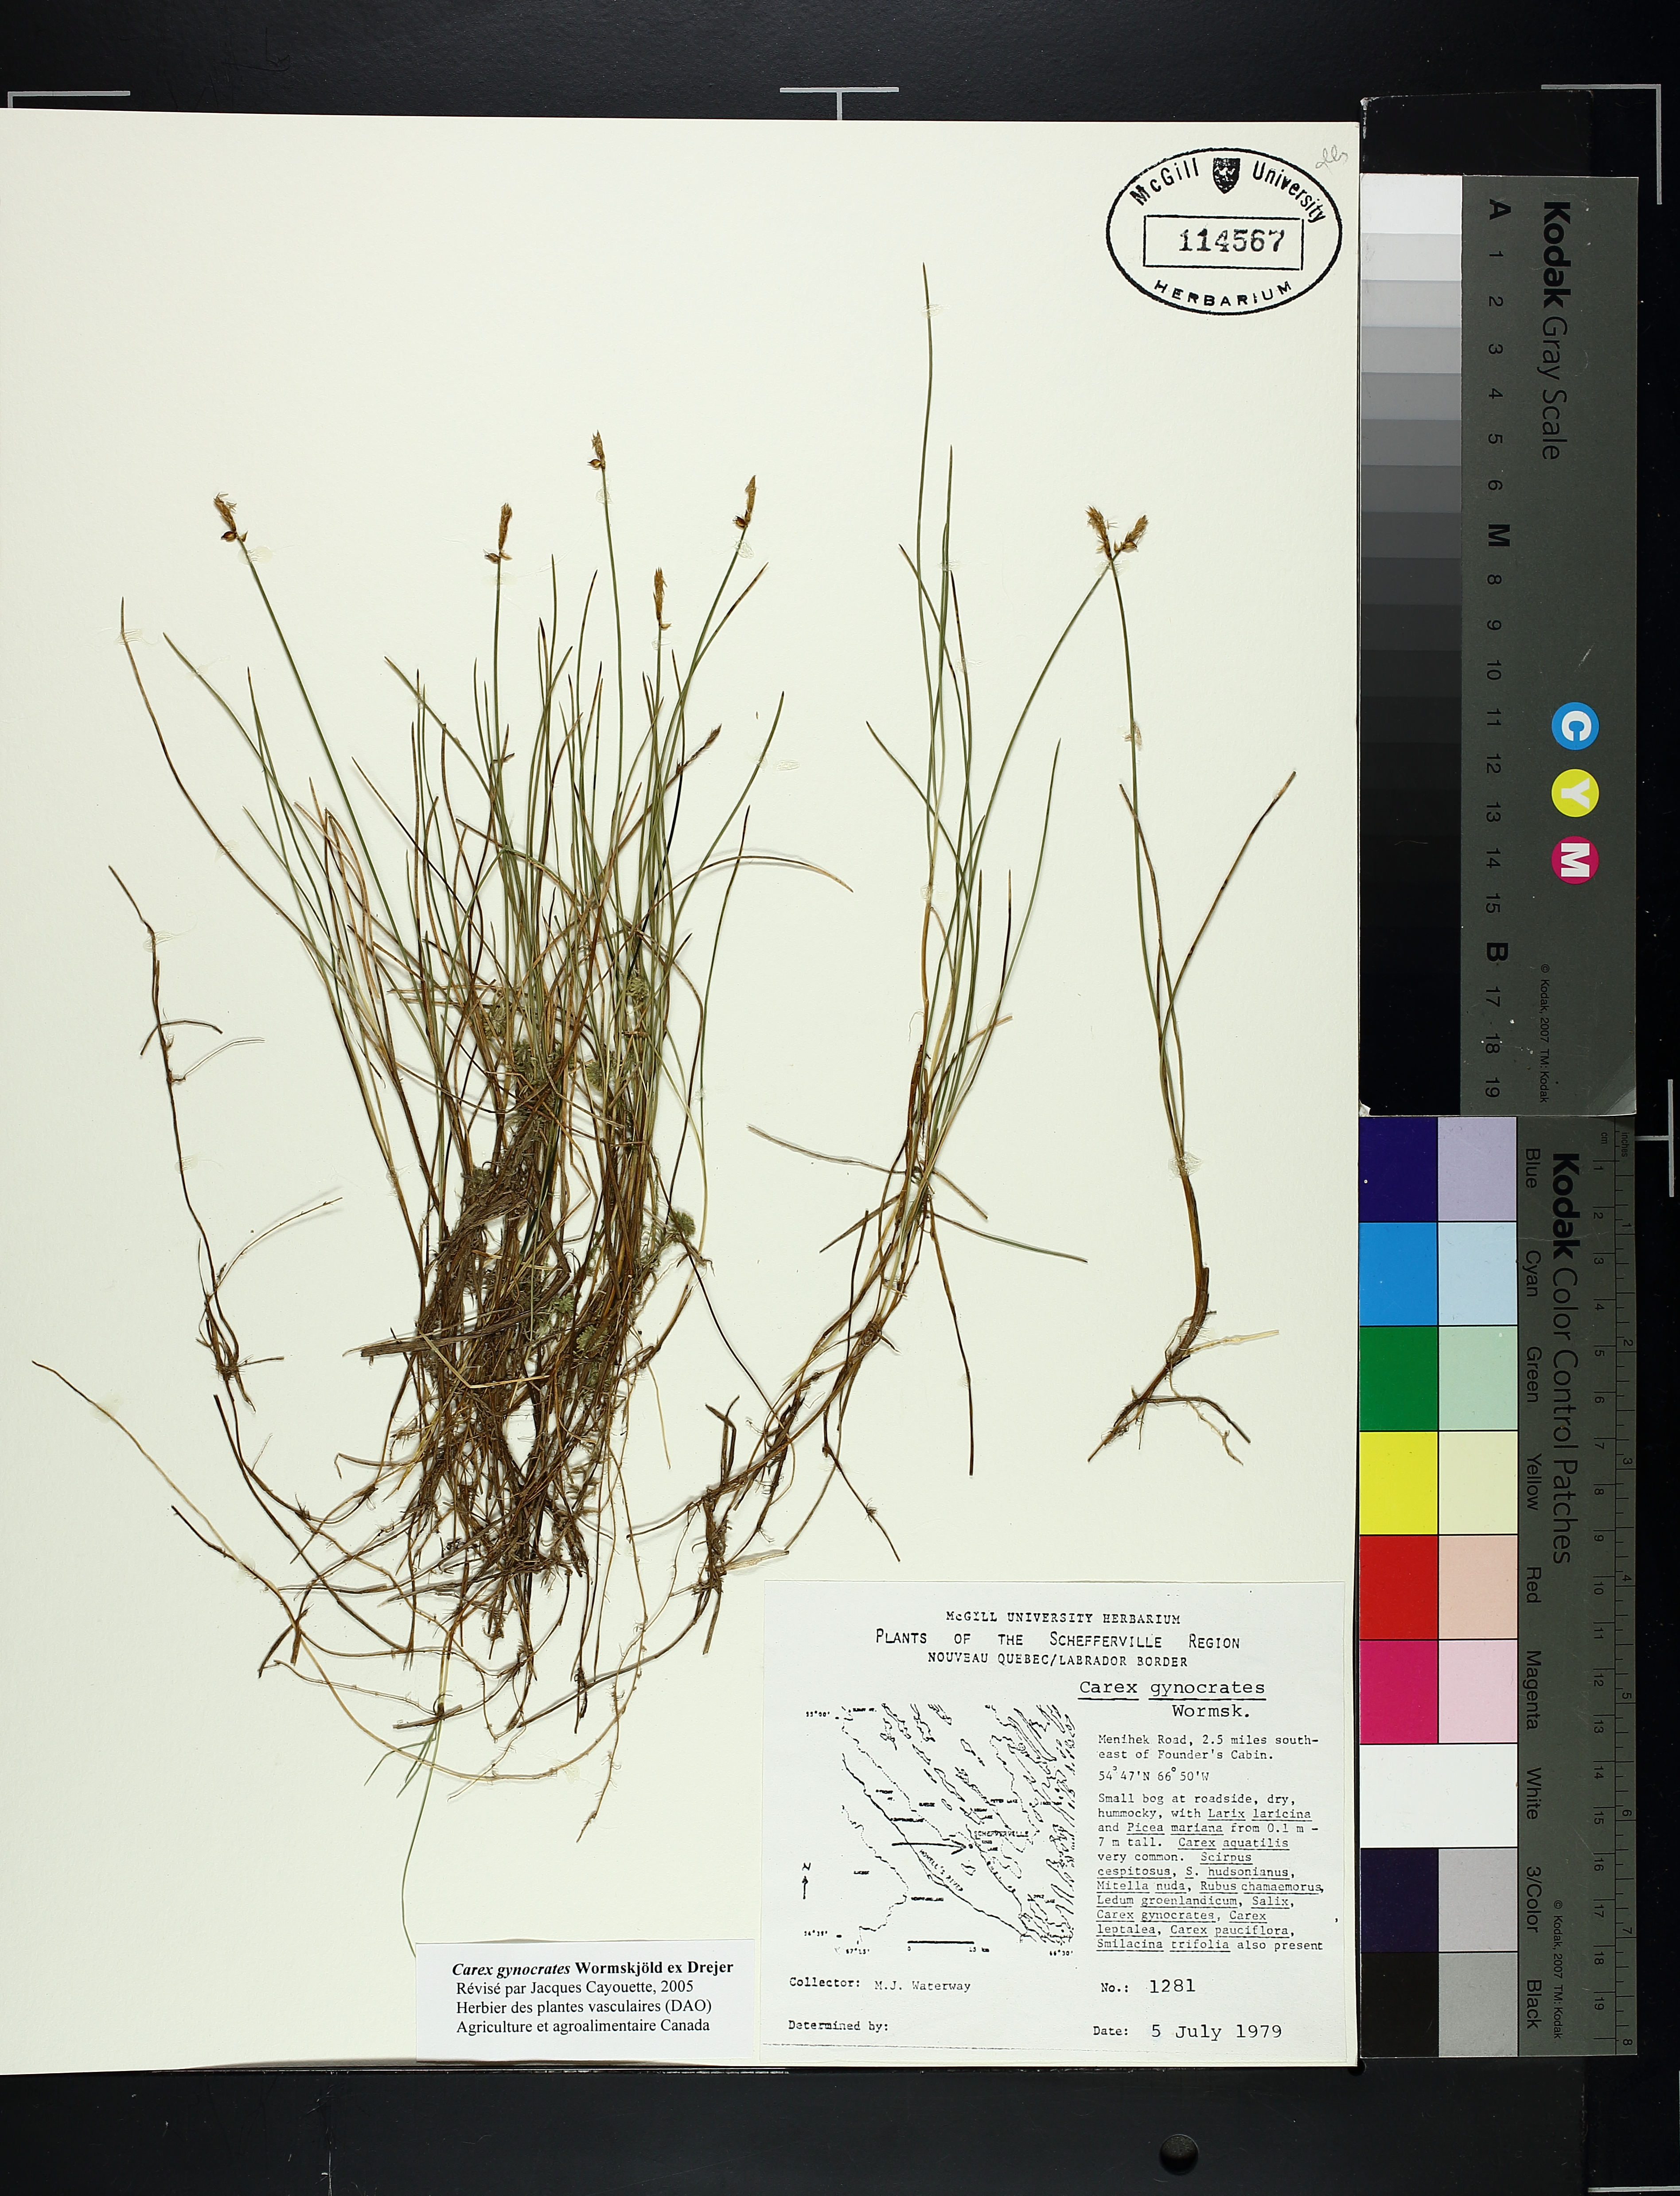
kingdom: Plantae
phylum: Tracheophyta
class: Liliopsida
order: Poales
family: Cyperaceae
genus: Carex
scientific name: Carex gynocrates
